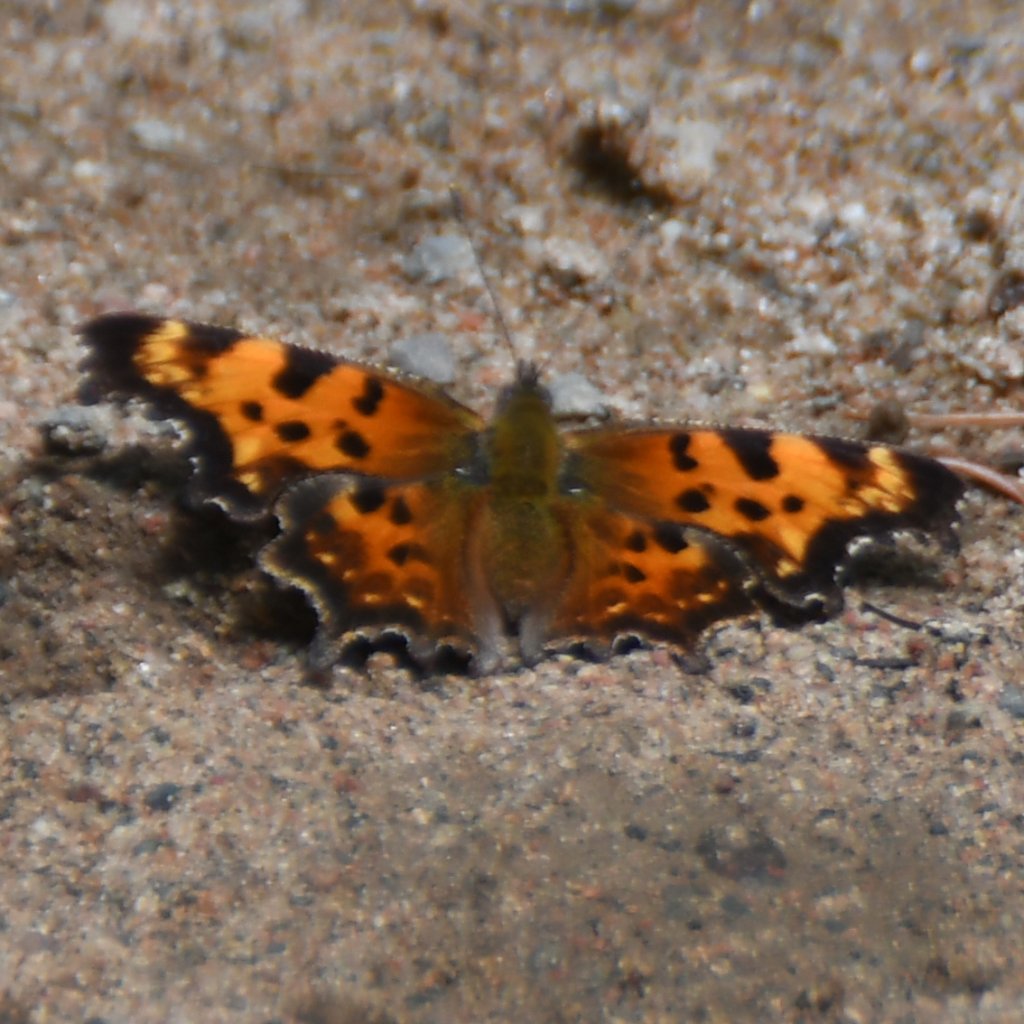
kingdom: Animalia
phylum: Arthropoda
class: Insecta
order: Lepidoptera
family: Nymphalidae
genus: Polygonia
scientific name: Polygonia faunus
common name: Green Comma
